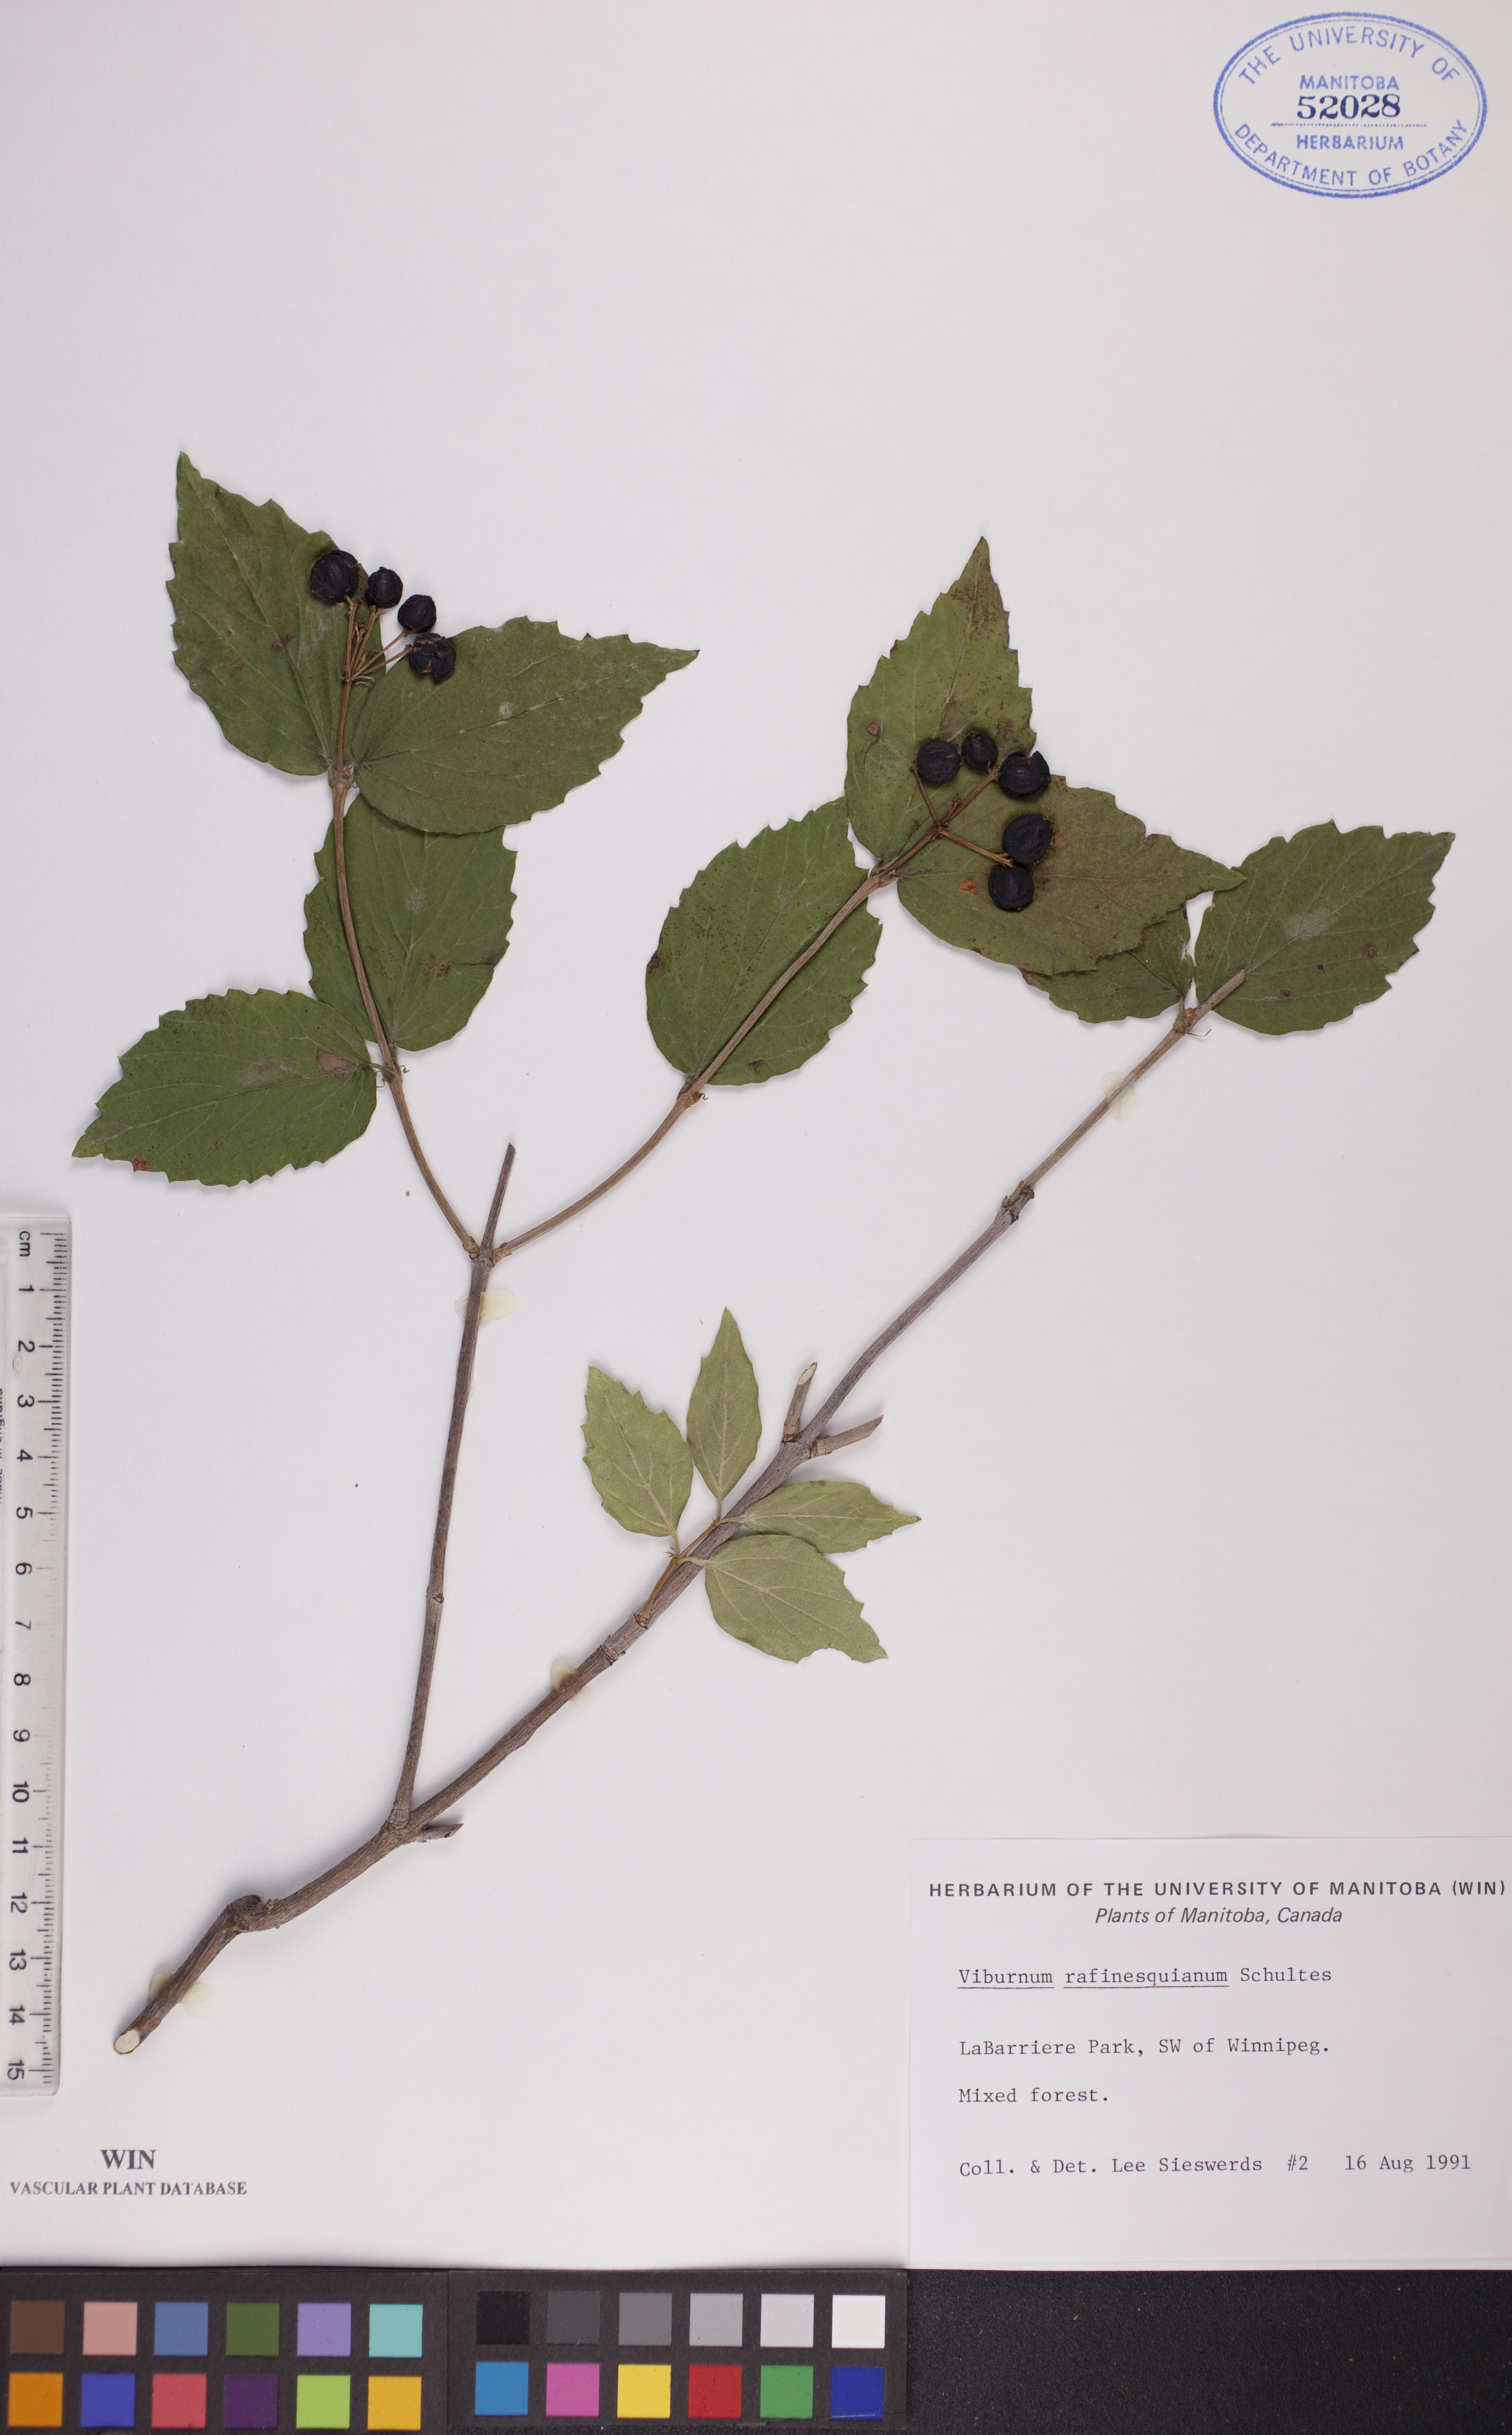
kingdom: Plantae
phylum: Tracheophyta
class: Magnoliopsida
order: Dipsacales
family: Viburnaceae
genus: Viburnum
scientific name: Viburnum rafinesquianum
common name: Downy arrow-wood
